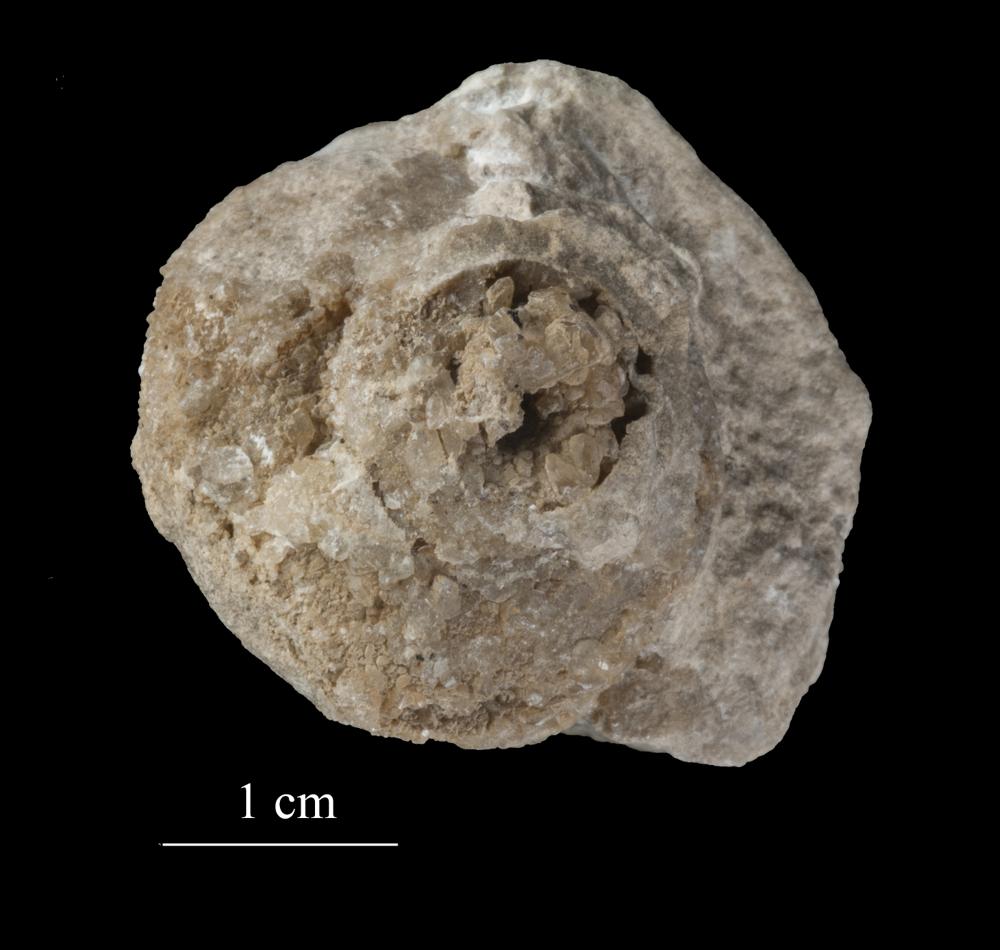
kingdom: Animalia
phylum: Mollusca
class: Gastropoda
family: Lophospiridae
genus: Ruedemannia
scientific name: Ruedemannia Worthenia borkholmiensis
